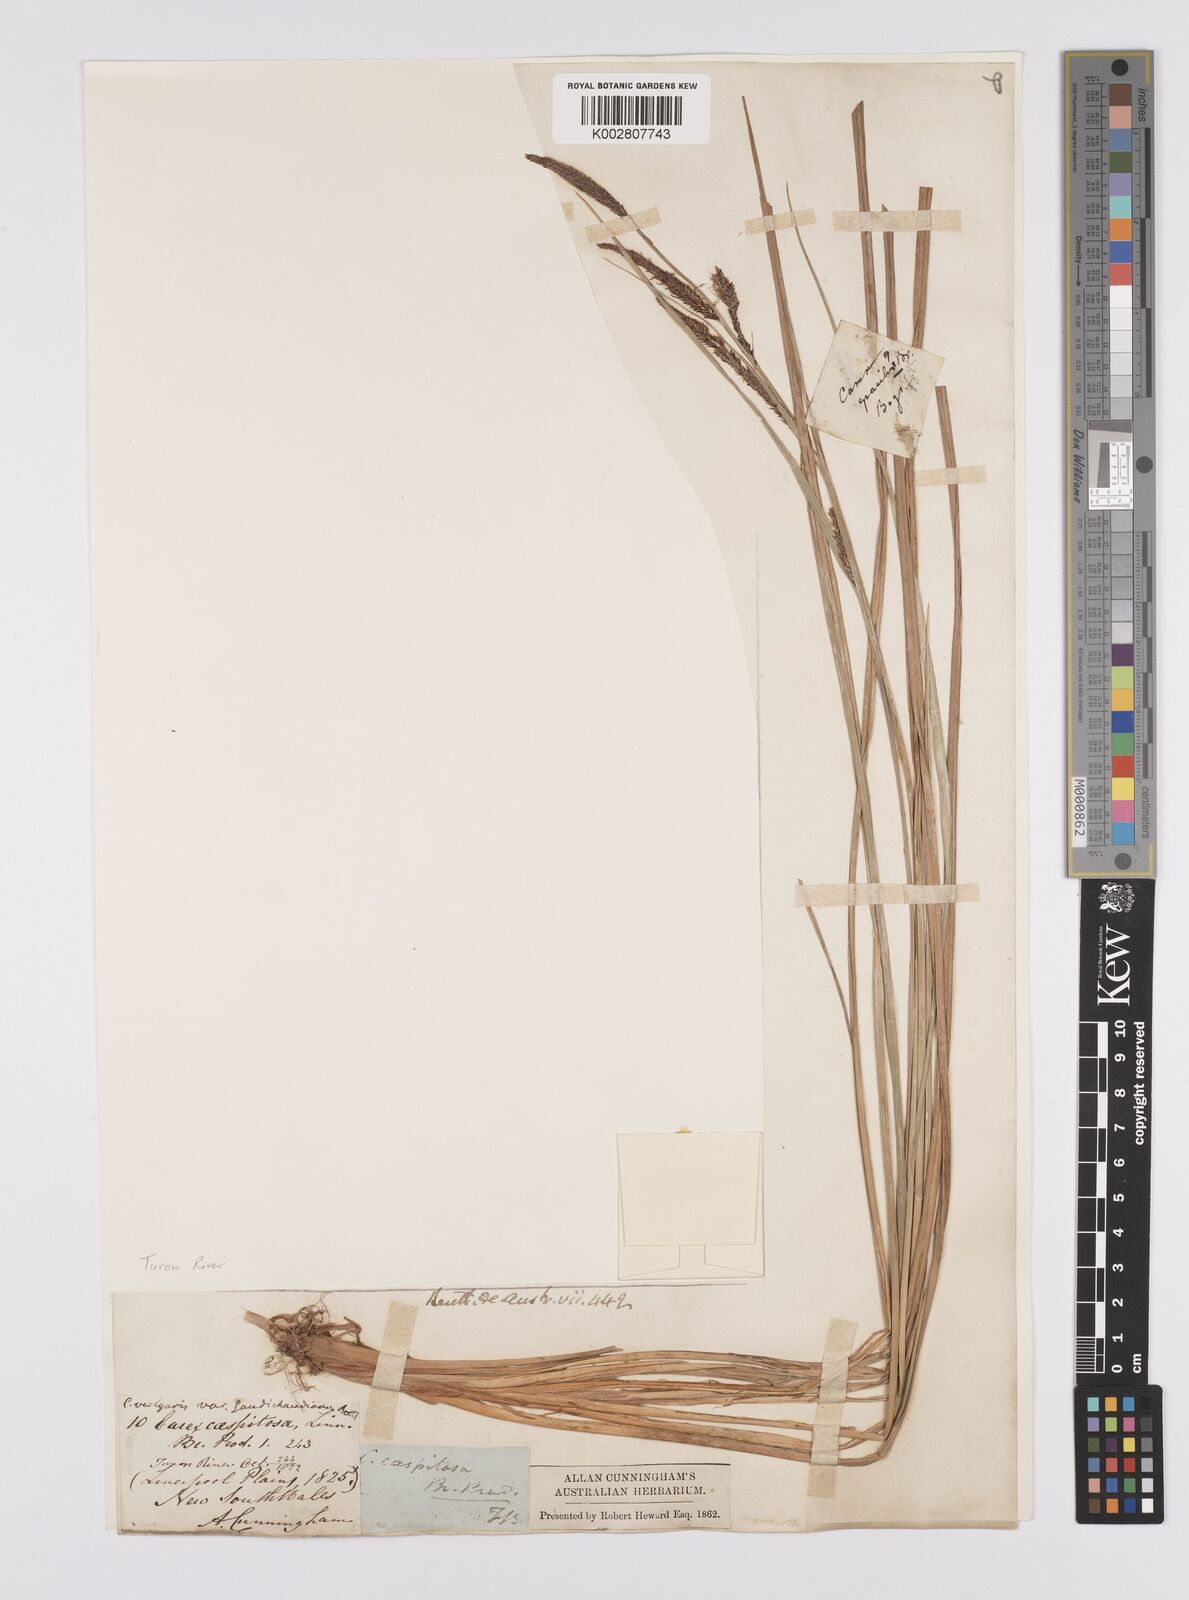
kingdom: Plantae
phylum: Tracheophyta
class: Liliopsida
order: Poales
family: Cyperaceae
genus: Carex
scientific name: Carex gaudichaudiana
